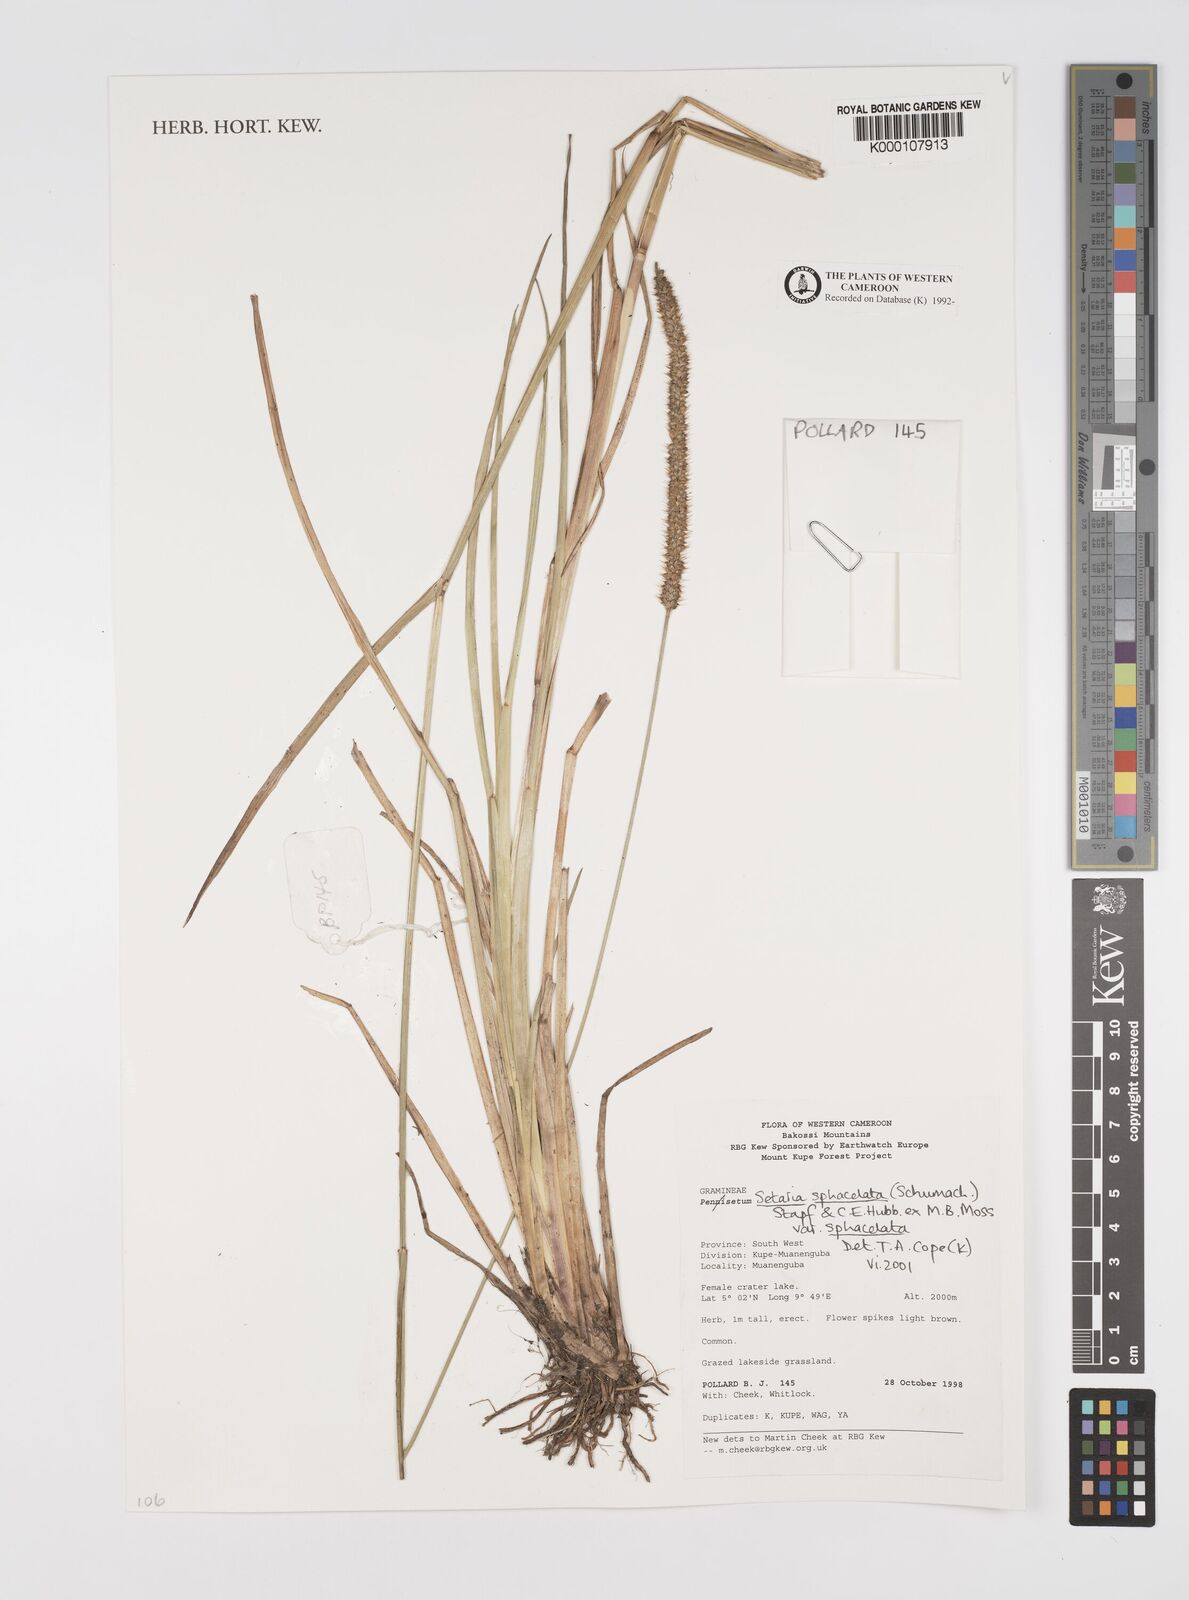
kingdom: Plantae
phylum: Tracheophyta
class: Liliopsida
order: Poales
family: Poaceae
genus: Setaria
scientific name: Setaria sphacelata
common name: African bristlegrass
